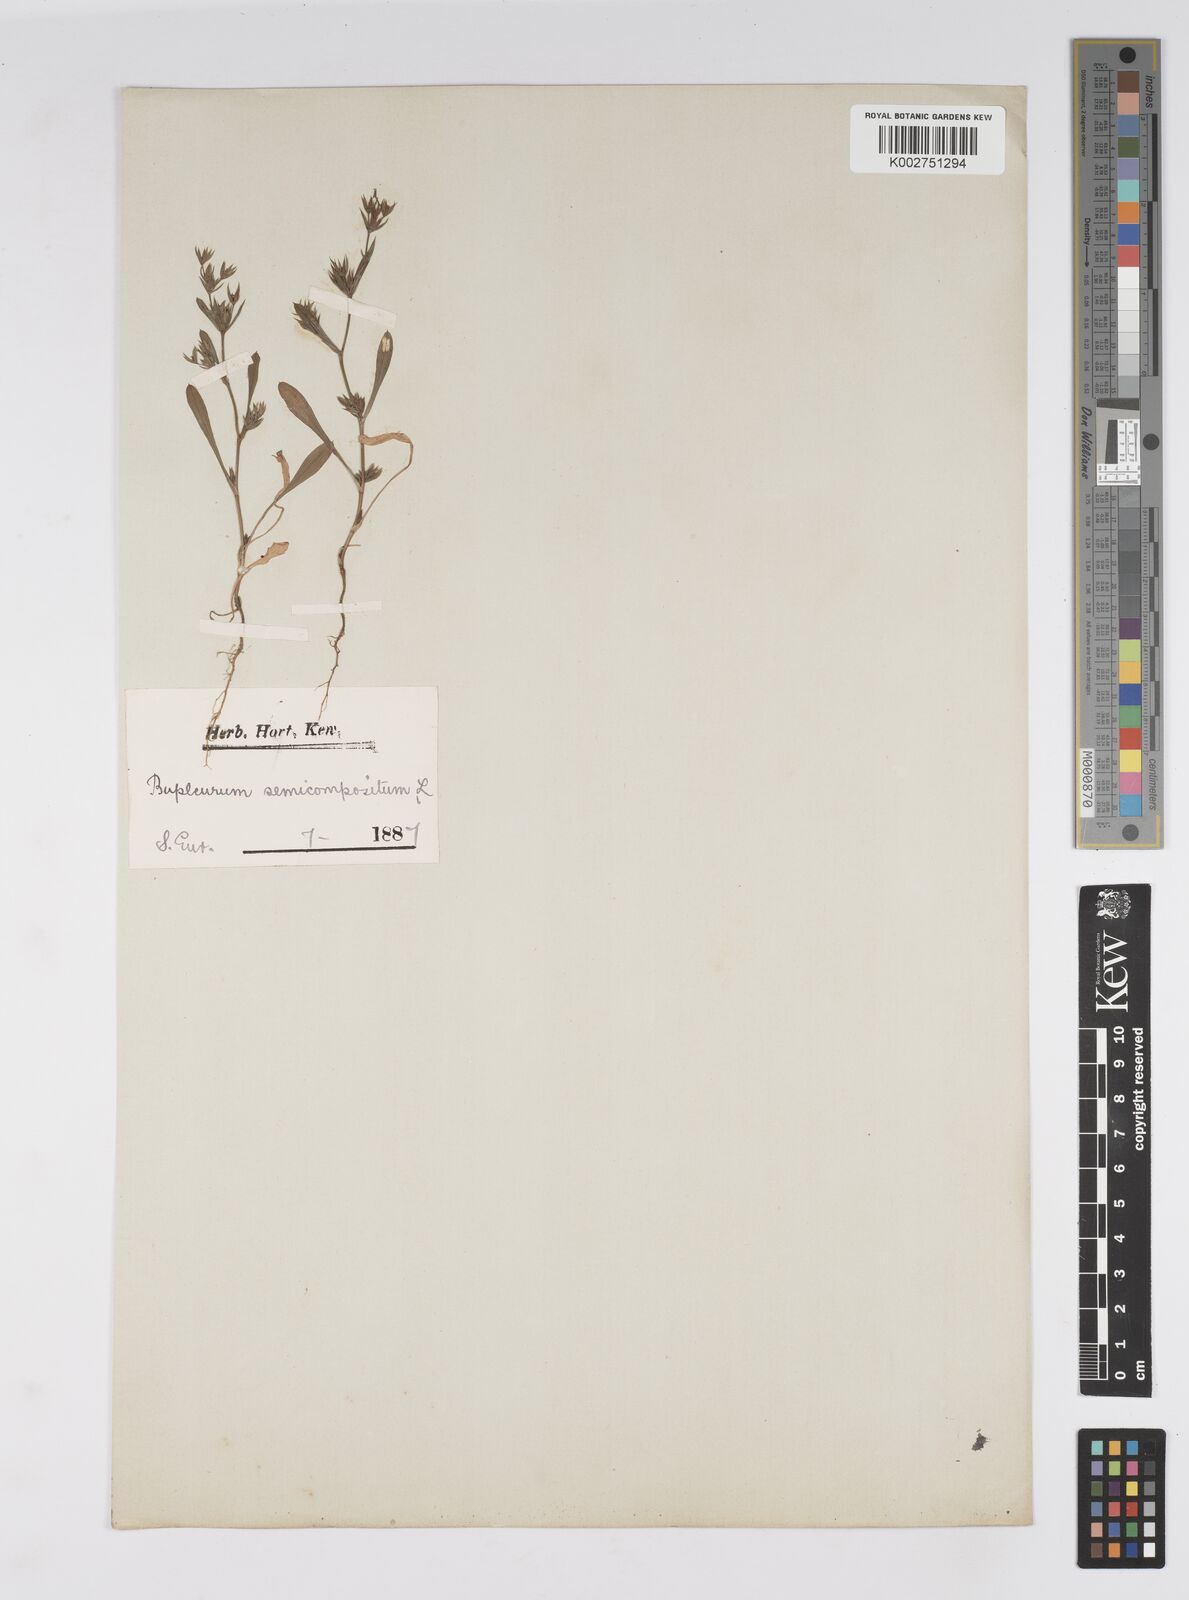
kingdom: Plantae
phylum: Tracheophyta
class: Magnoliopsida
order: Apiales
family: Apiaceae
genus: Bupleurum
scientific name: Bupleurum semicompositum
